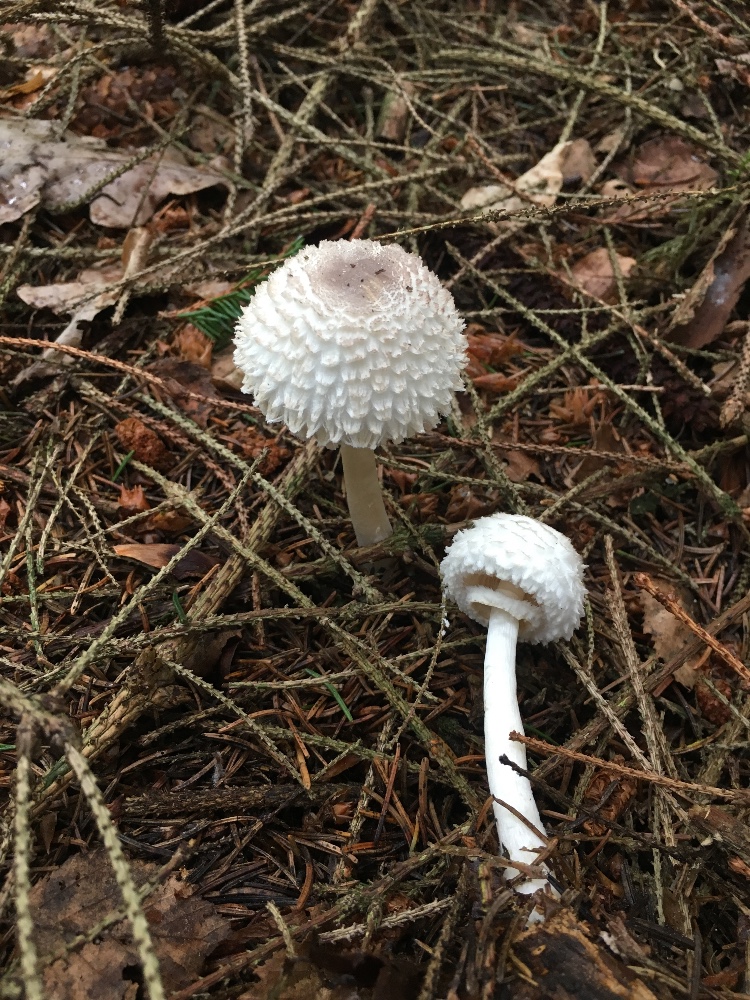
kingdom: Fungi
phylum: Basidiomycota
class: Agaricomycetes
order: Agaricales
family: Agaricaceae
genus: Leucoagaricus
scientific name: Leucoagaricus nympharum
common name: gran-silkehat
